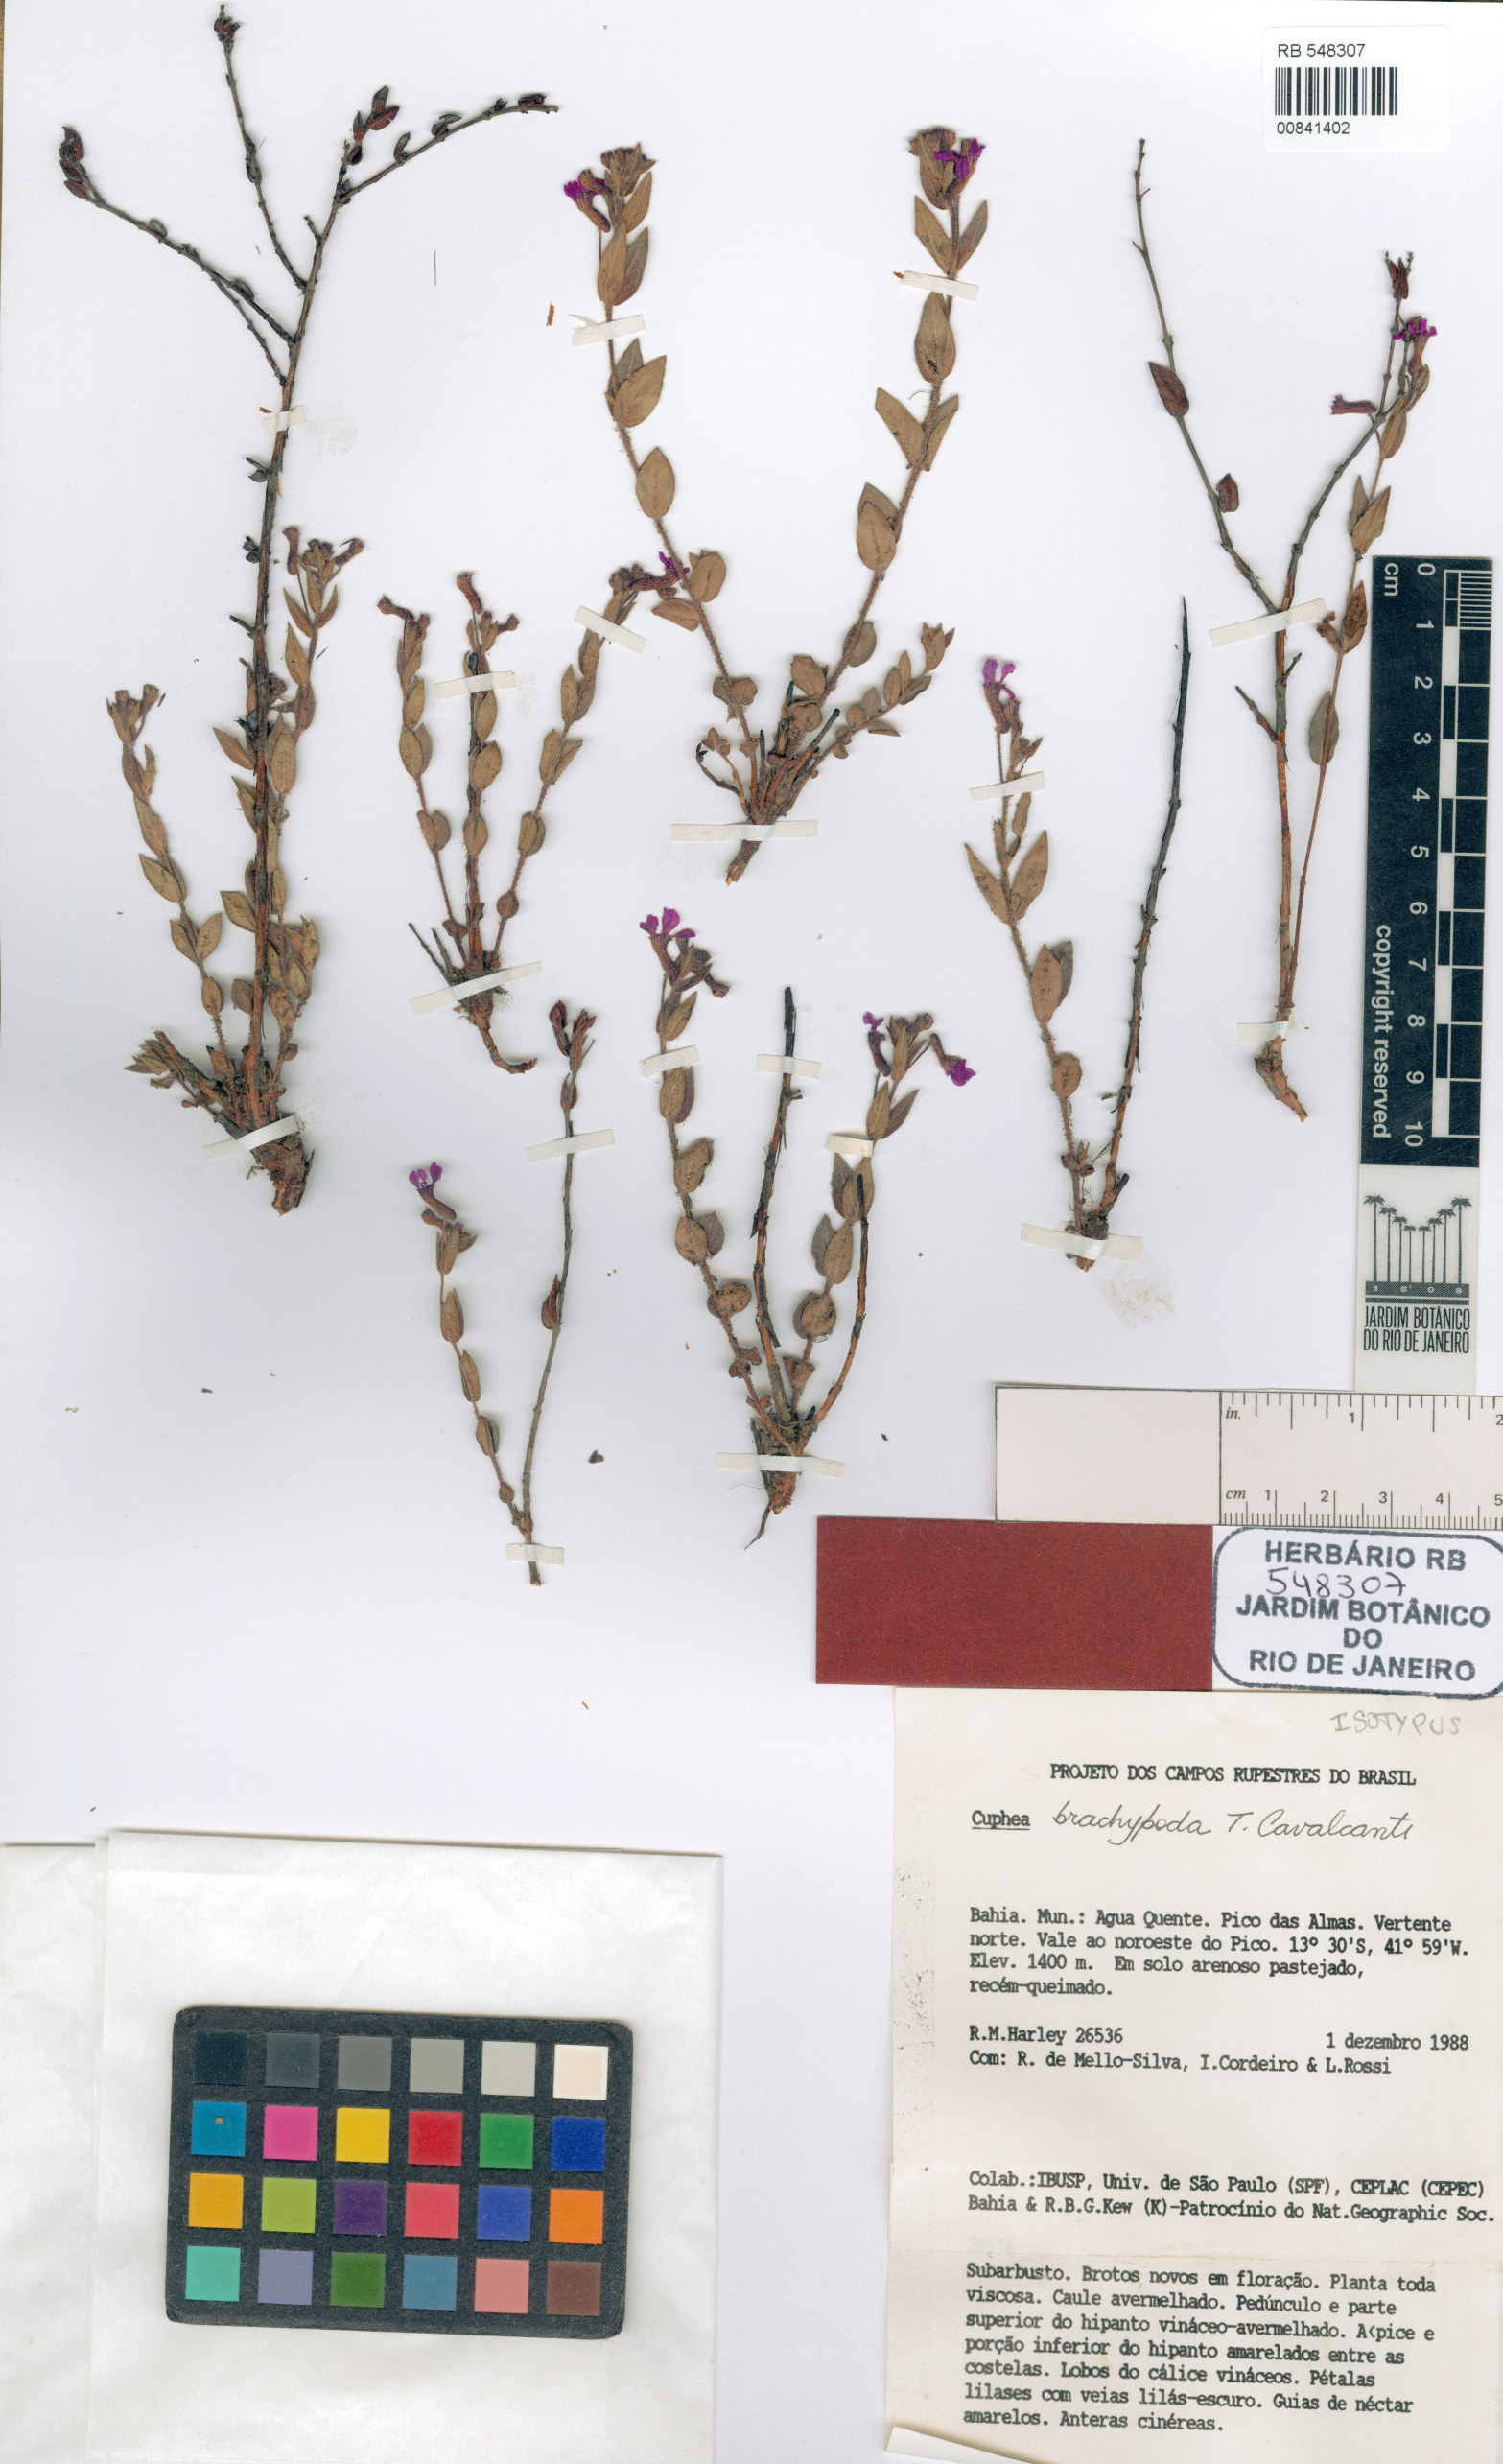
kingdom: Plantae
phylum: Tracheophyta
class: Magnoliopsida
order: Myrtales
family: Lythraceae
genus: Cuphea
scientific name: Cuphea brachypoda
